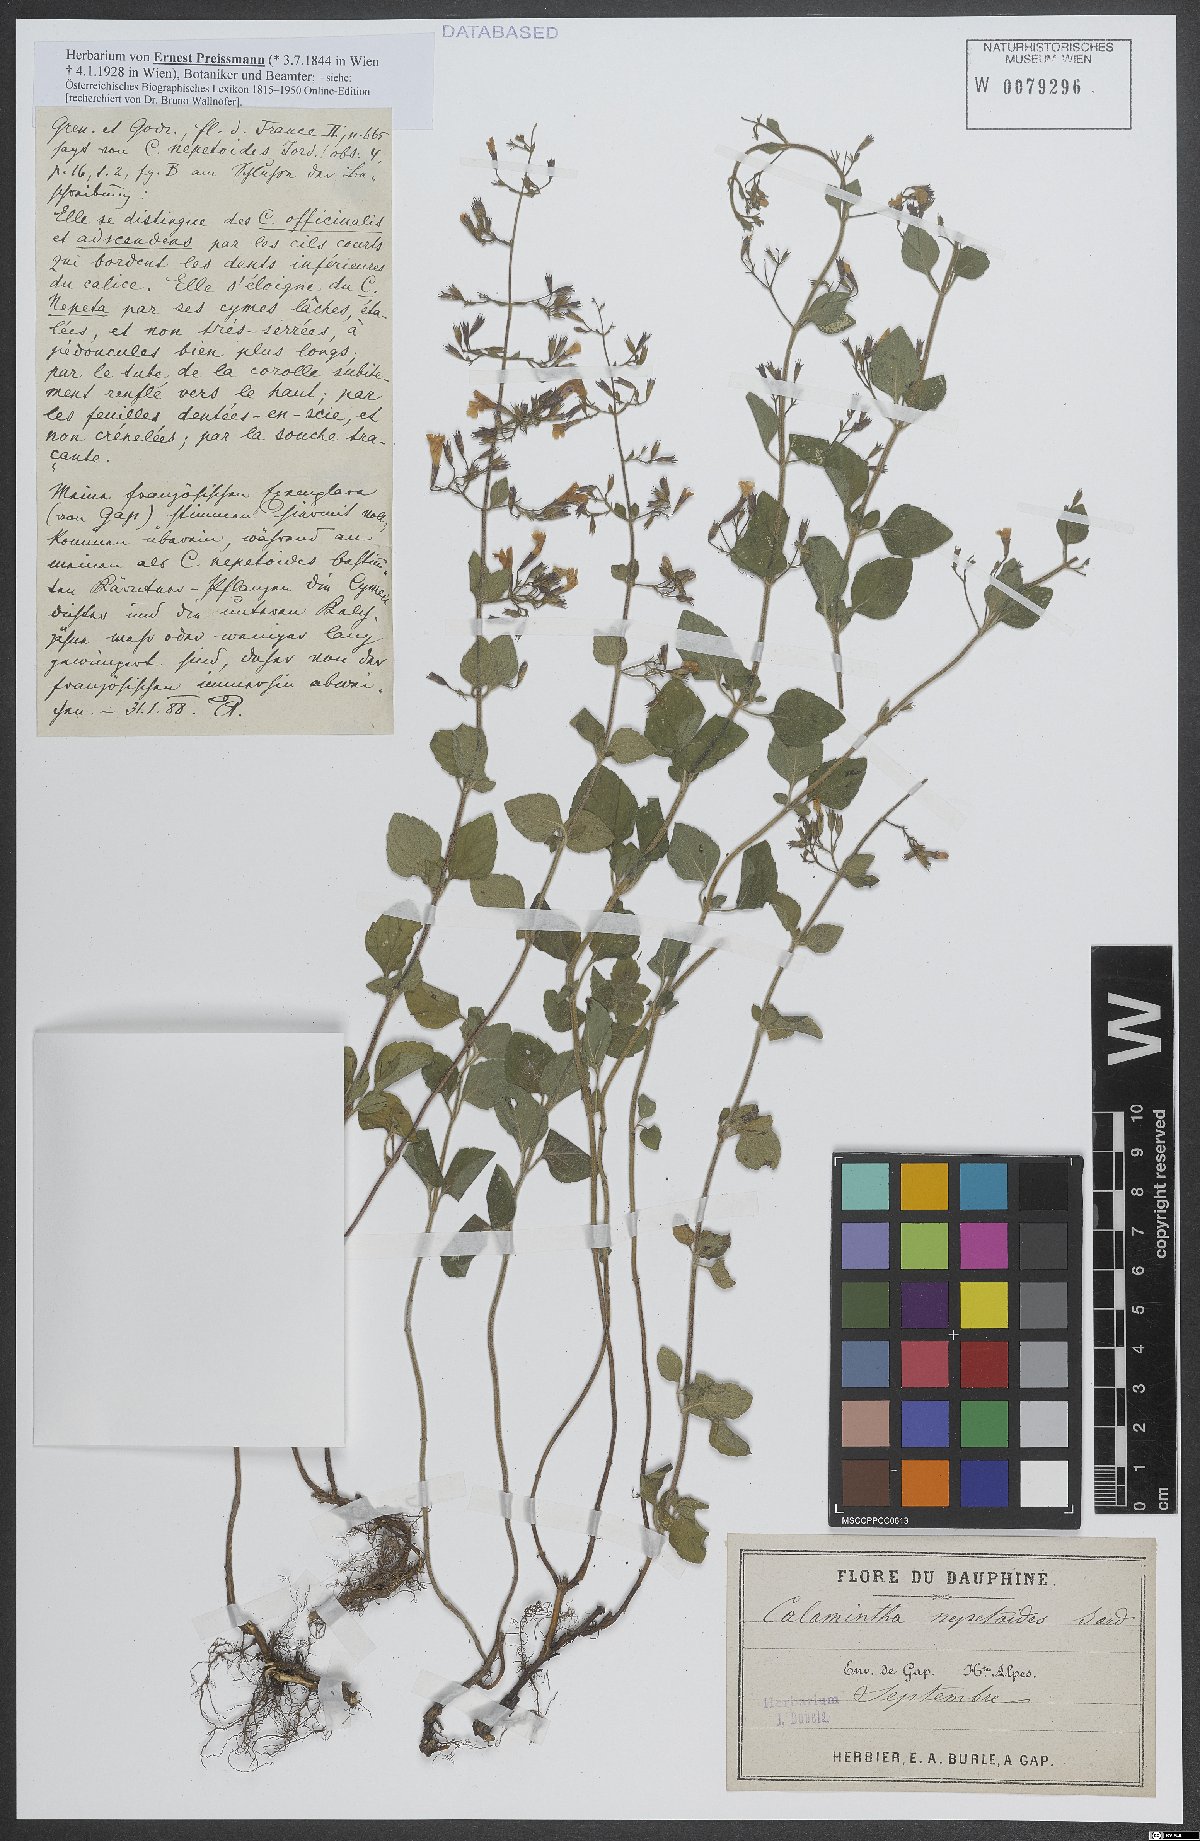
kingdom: Plantae
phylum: Tracheophyta
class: Magnoliopsida
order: Lamiales
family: Lamiaceae
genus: Clinopodium
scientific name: Clinopodium nepeta
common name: Lesser calamint
